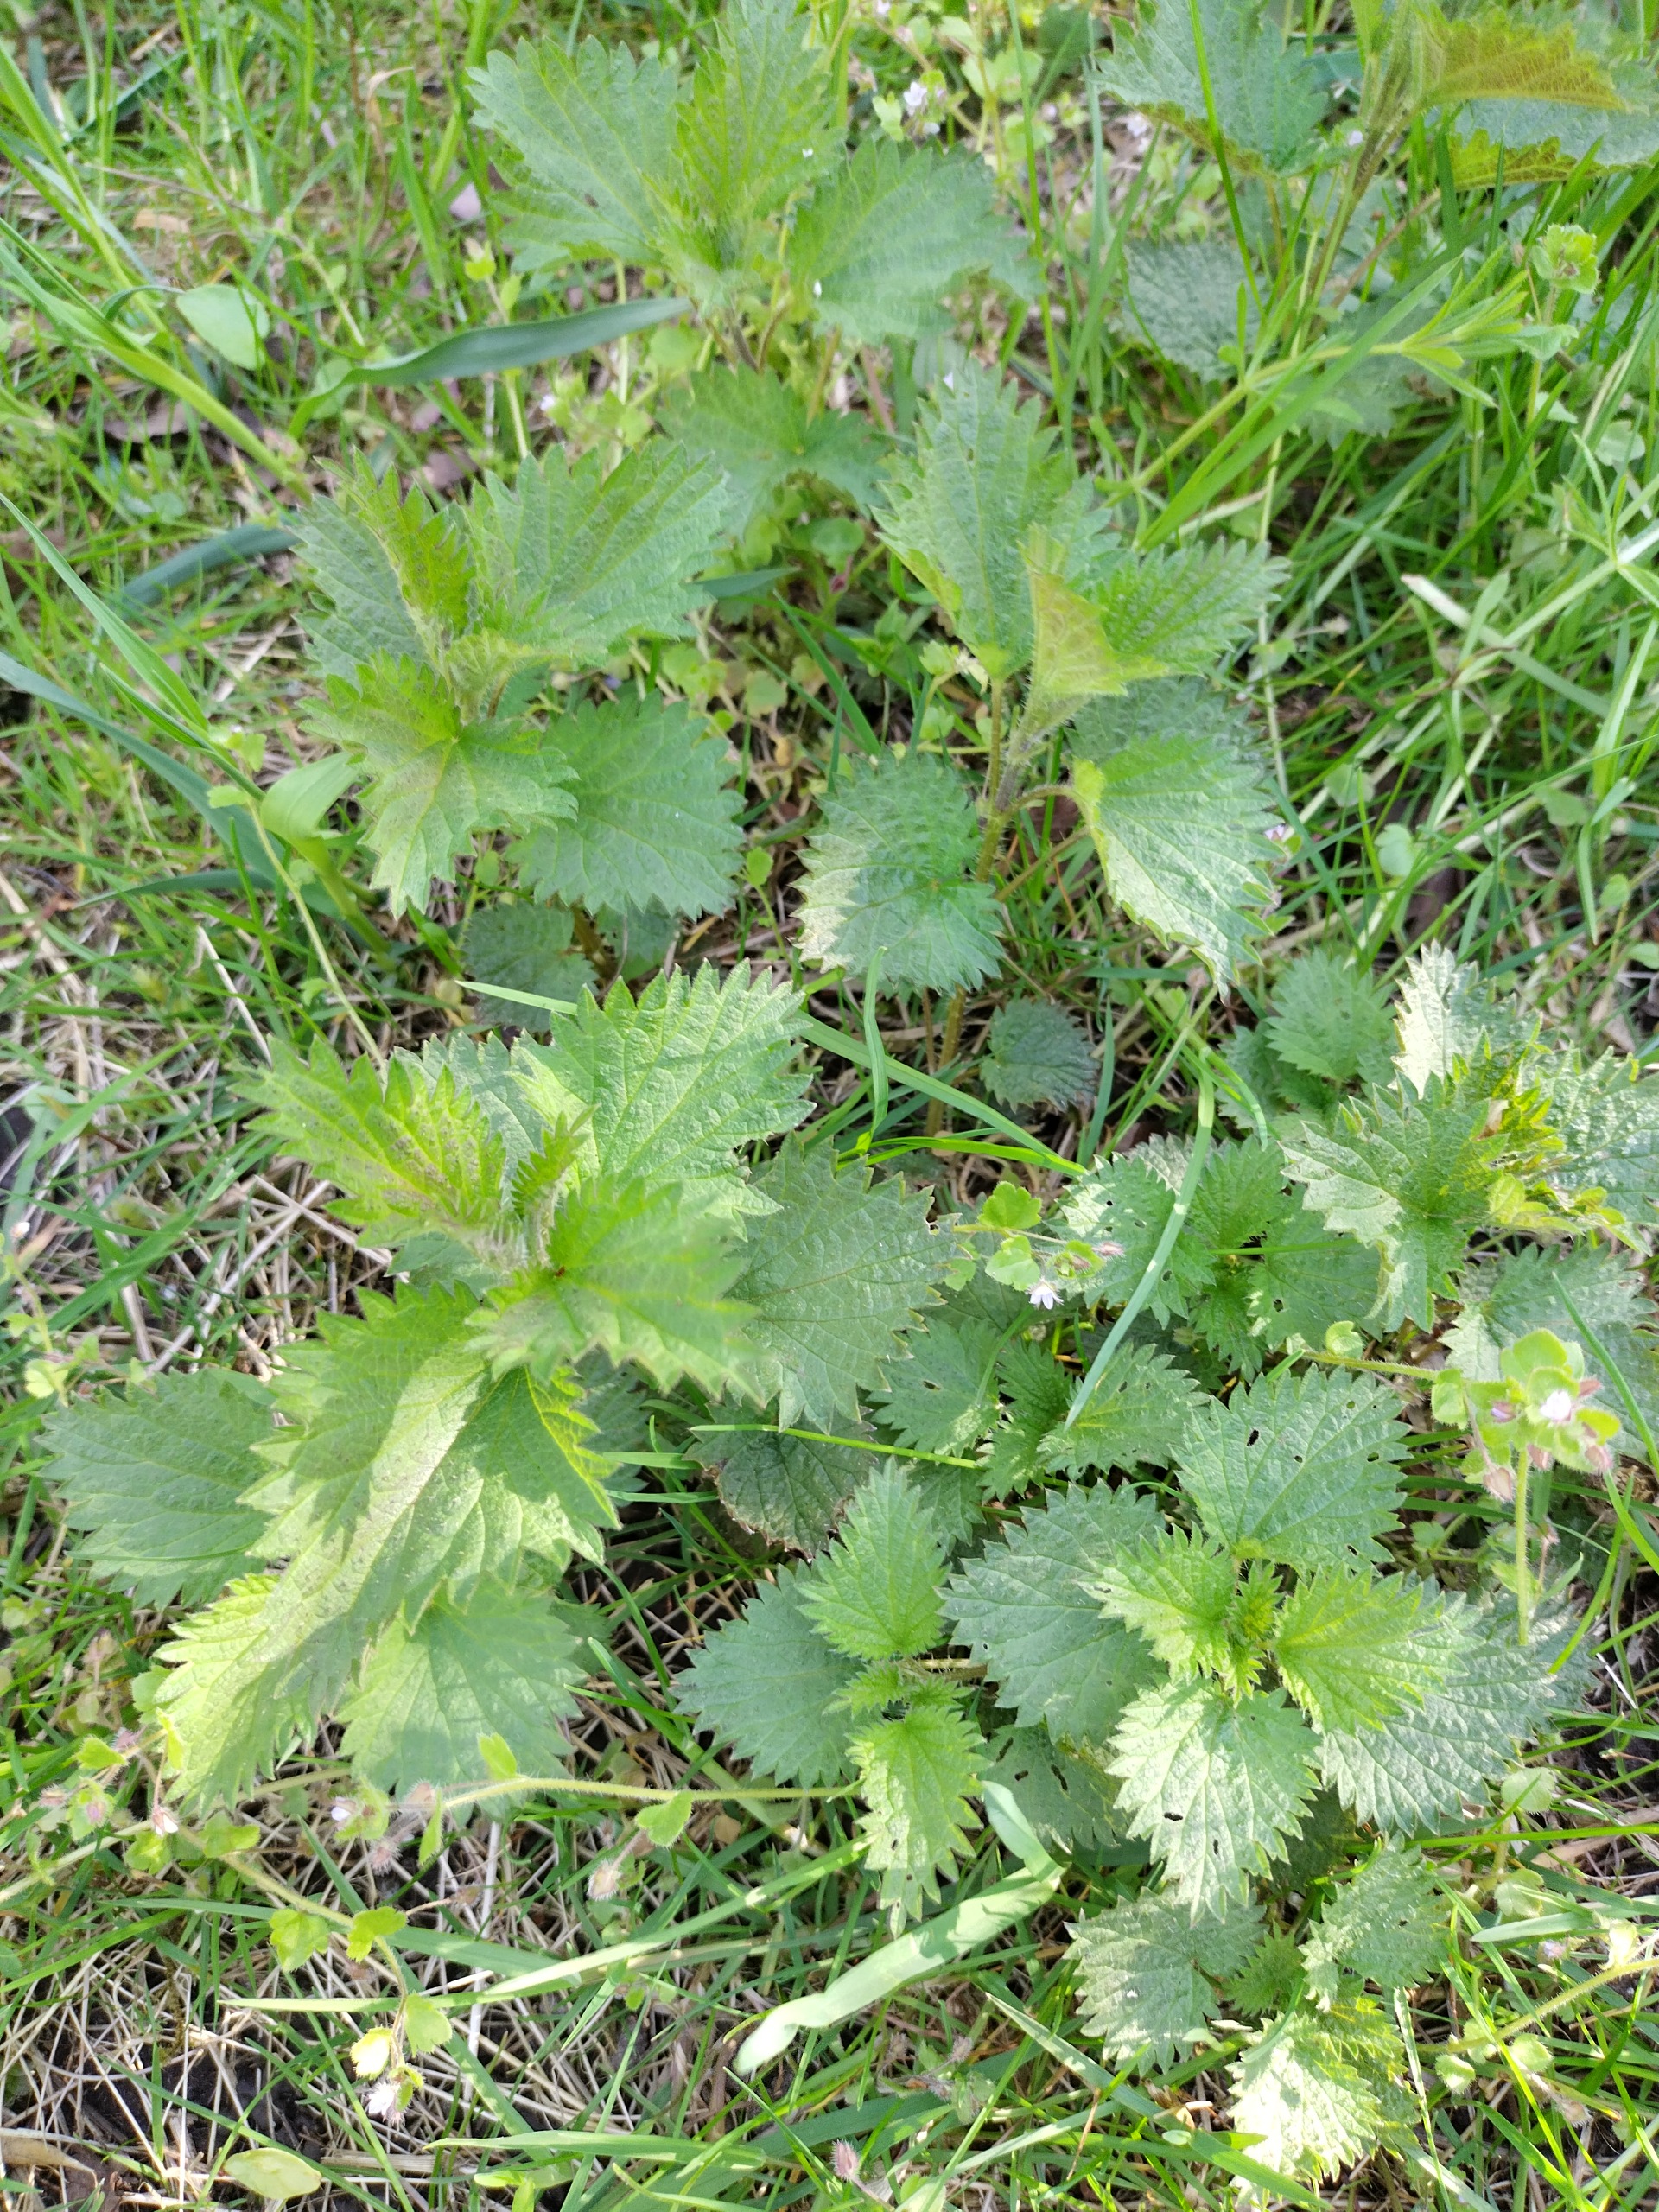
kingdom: Plantae
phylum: Tracheophyta
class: Magnoliopsida
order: Rosales
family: Urticaceae
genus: Urtica
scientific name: Urtica dioica
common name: Stor nælde
